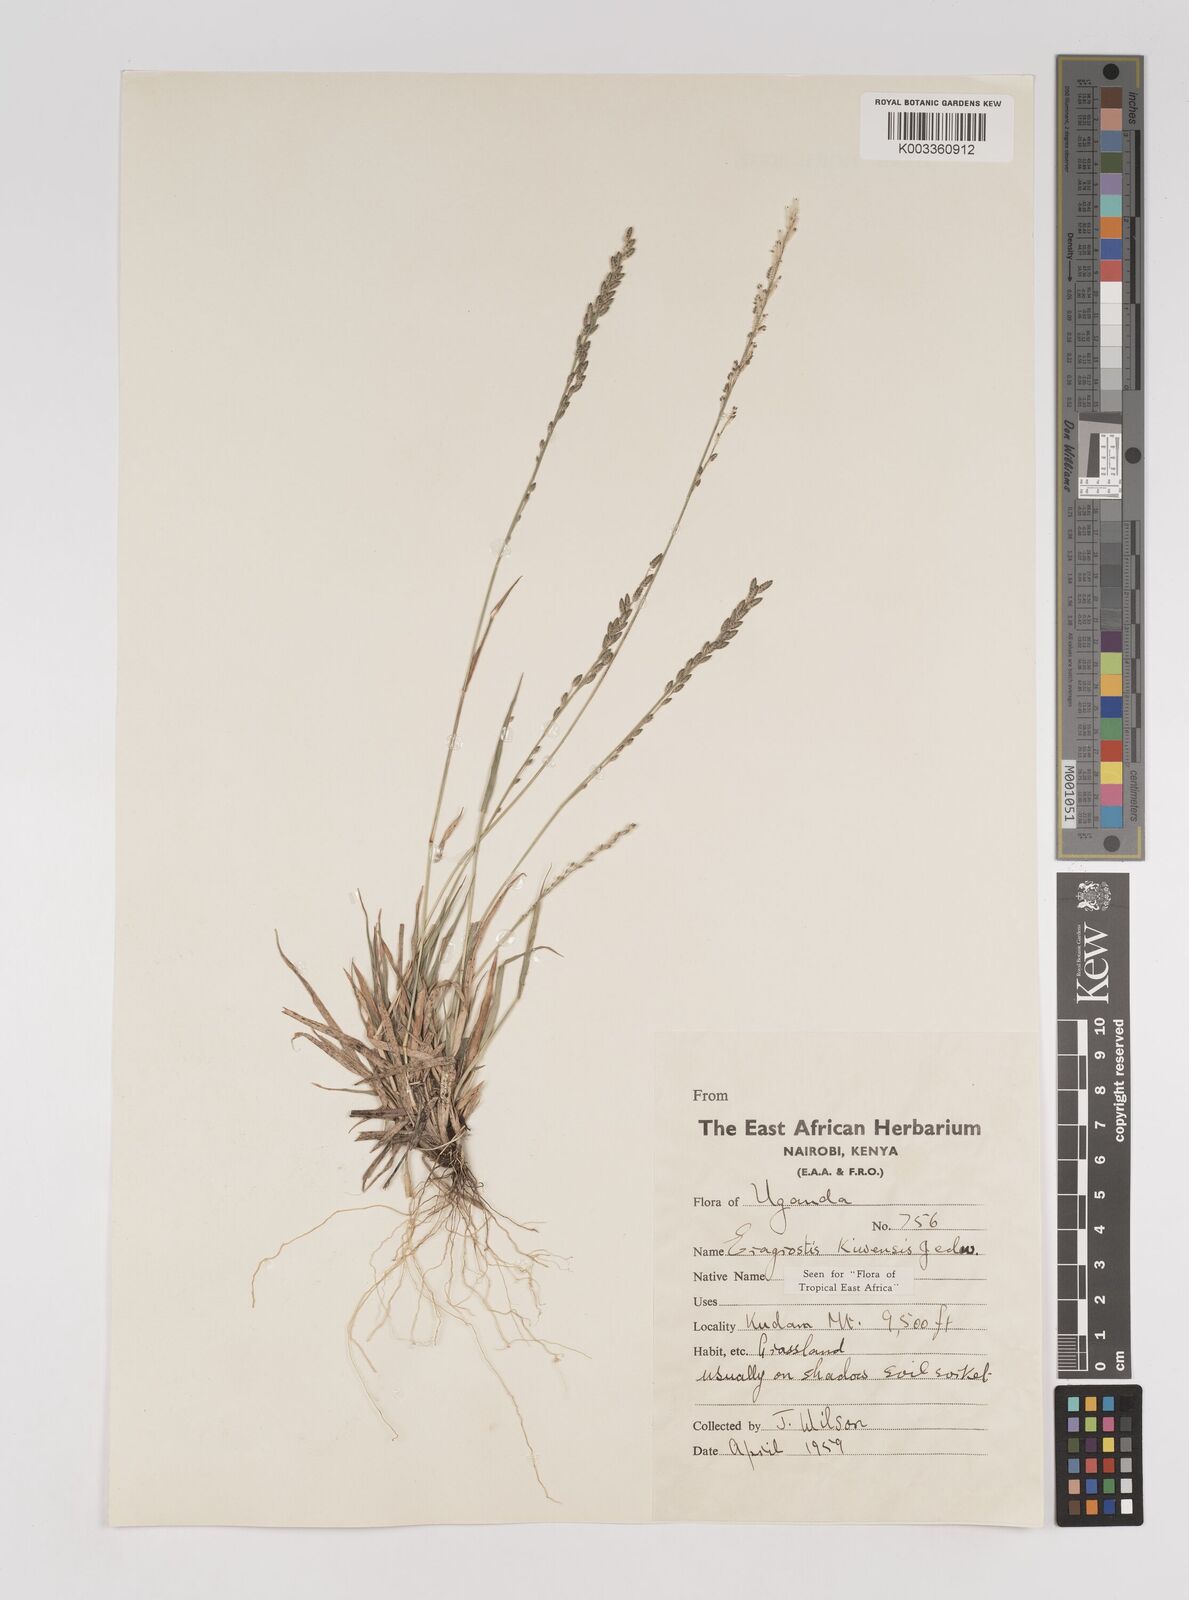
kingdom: Plantae
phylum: Tracheophyta
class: Liliopsida
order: Poales
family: Poaceae
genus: Eragrostis
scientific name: Eragrostis schweinfurthii
